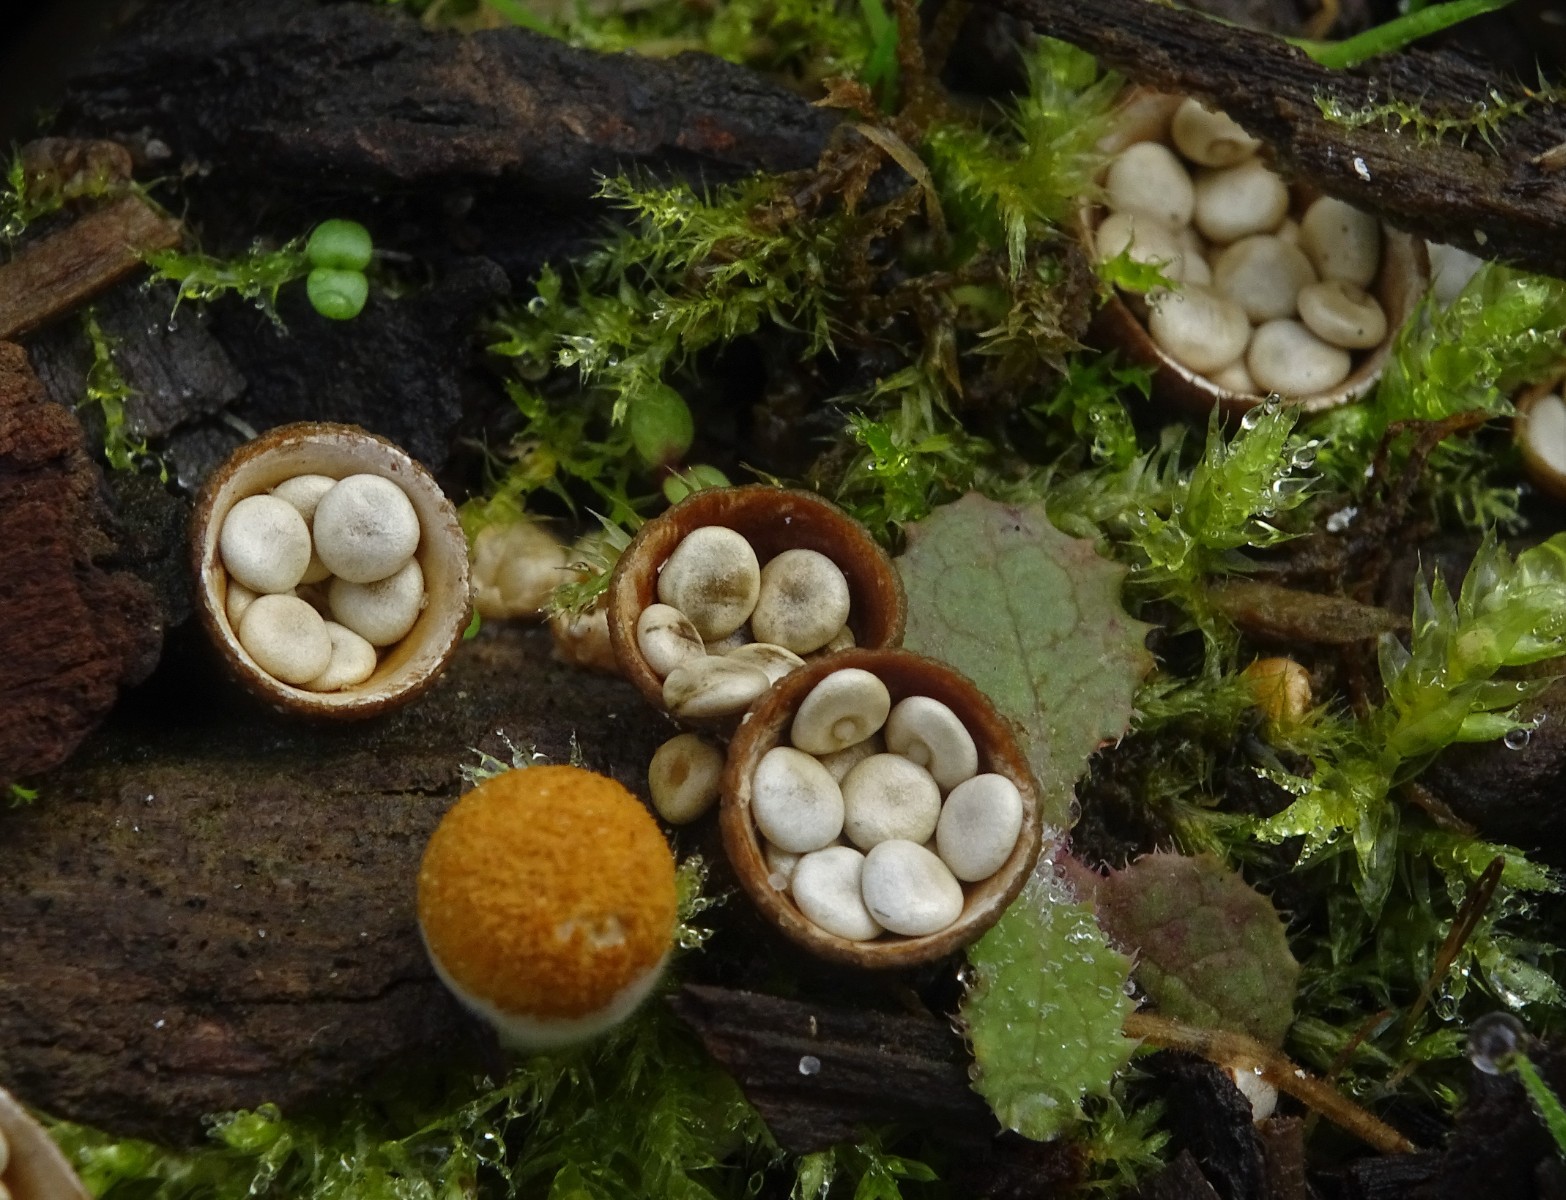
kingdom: Fungi
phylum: Basidiomycota
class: Agaricomycetes
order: Agaricales
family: Nidulariaceae
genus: Crucibulum
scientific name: Crucibulum crucibuliforme
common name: krukkesvamp
